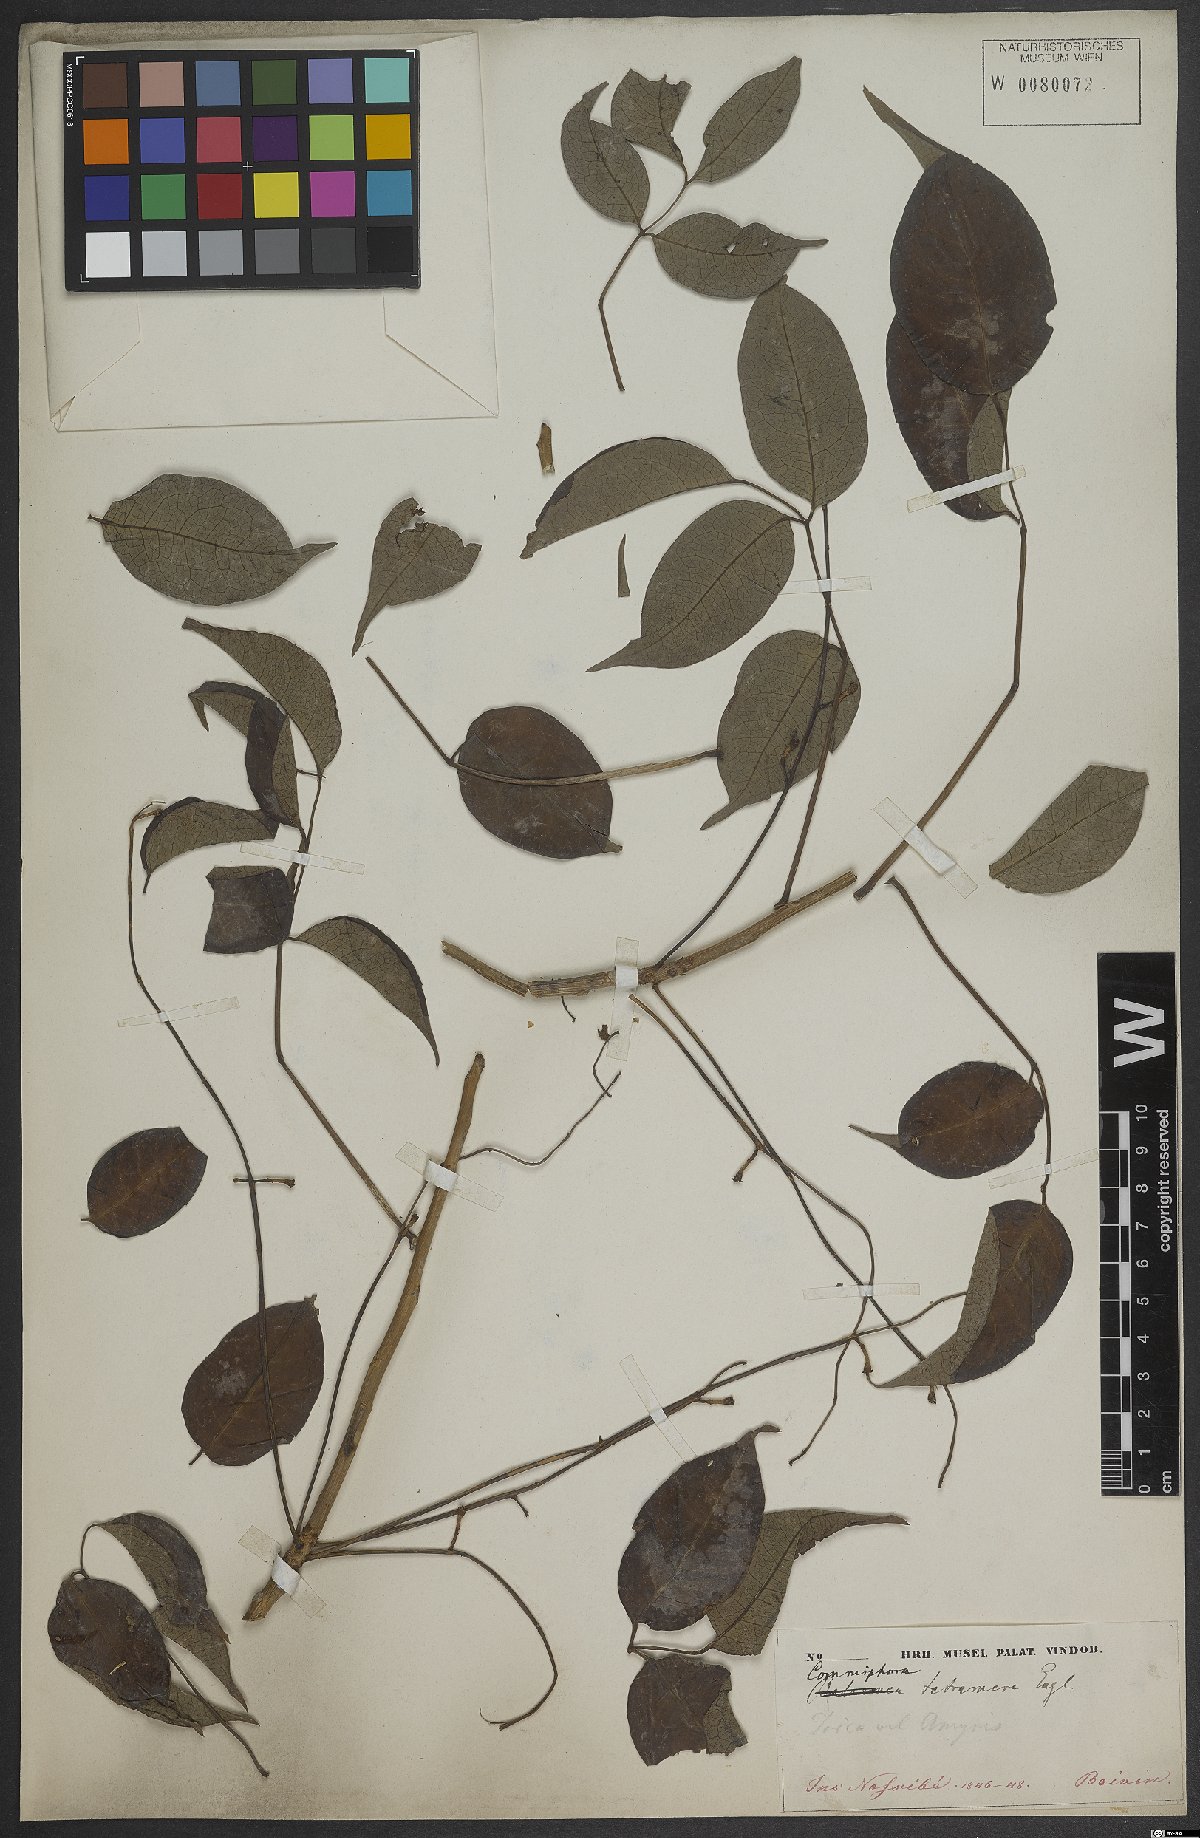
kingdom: Plantae
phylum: Tracheophyta
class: Magnoliopsida
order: Sapindales
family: Burseraceae
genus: Commiphora
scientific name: Commiphora tetramera
